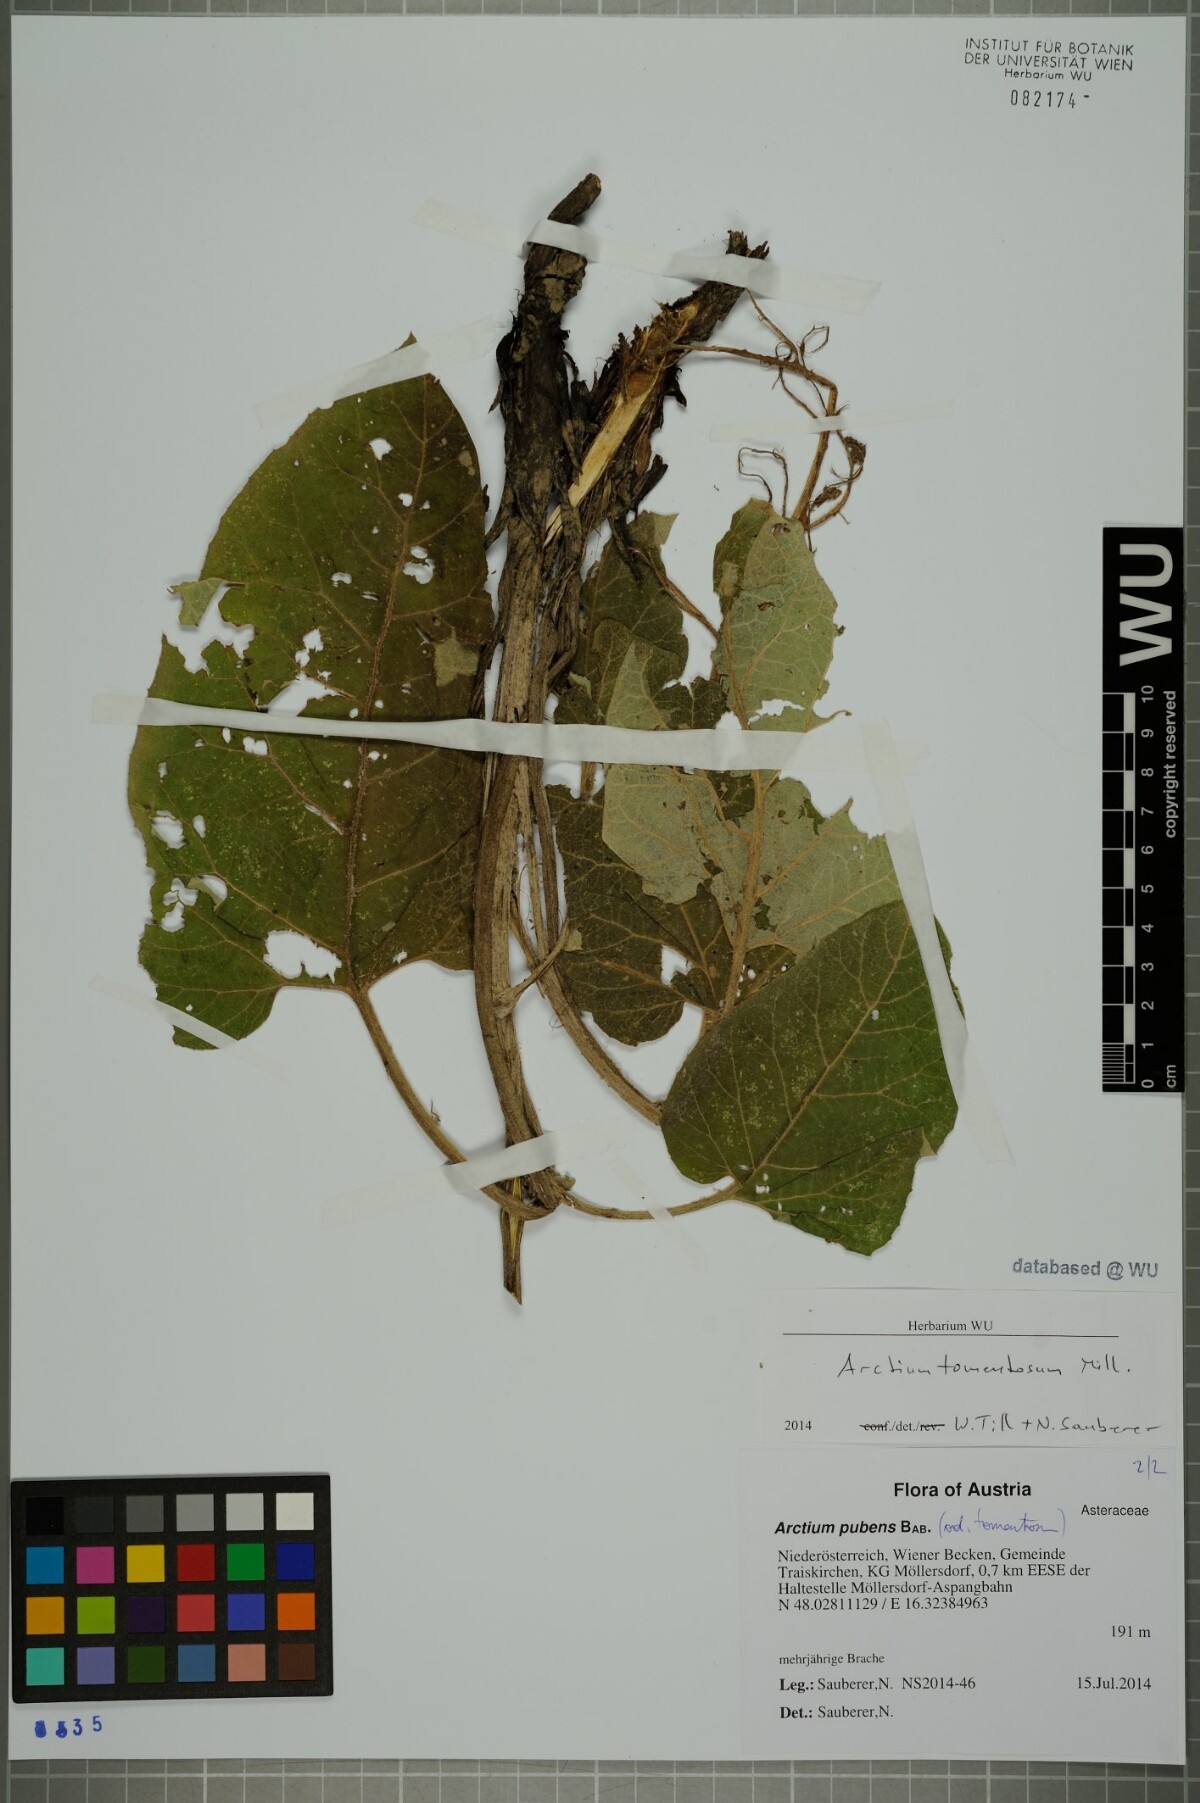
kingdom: Plantae
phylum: Tracheophyta
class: Magnoliopsida
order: Asterales
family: Asteraceae
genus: Arctium
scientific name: Arctium tomentosum
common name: Woolly burdock
